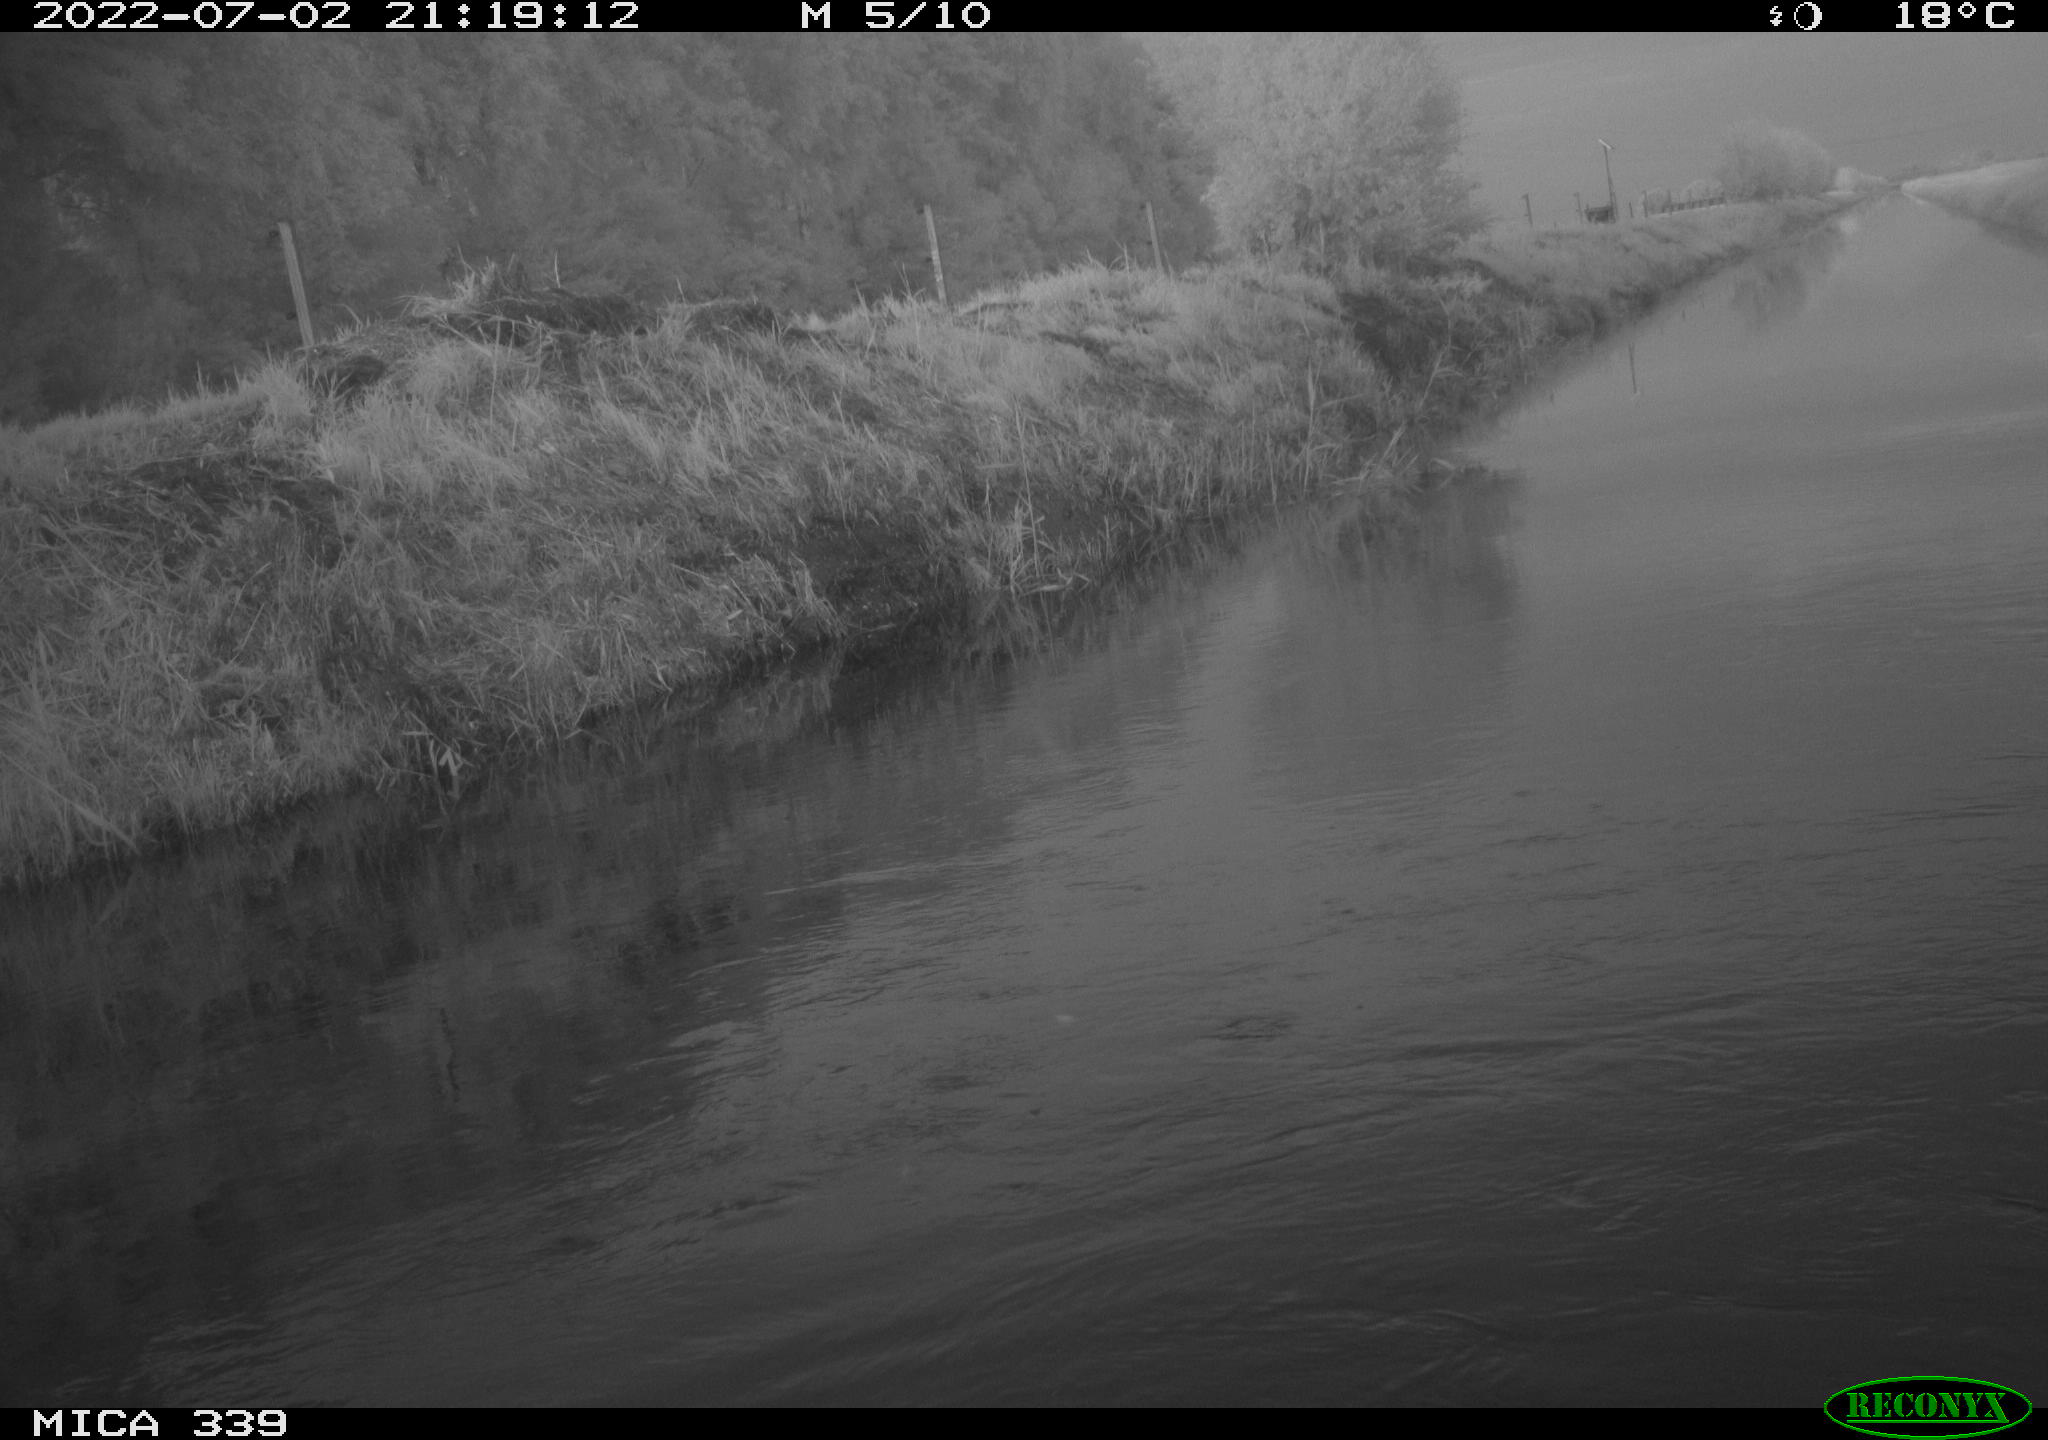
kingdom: Animalia
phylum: Chordata
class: Aves
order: Pelecaniformes
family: Ardeidae
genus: Ardea
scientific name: Ardea cinerea
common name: Grey heron
